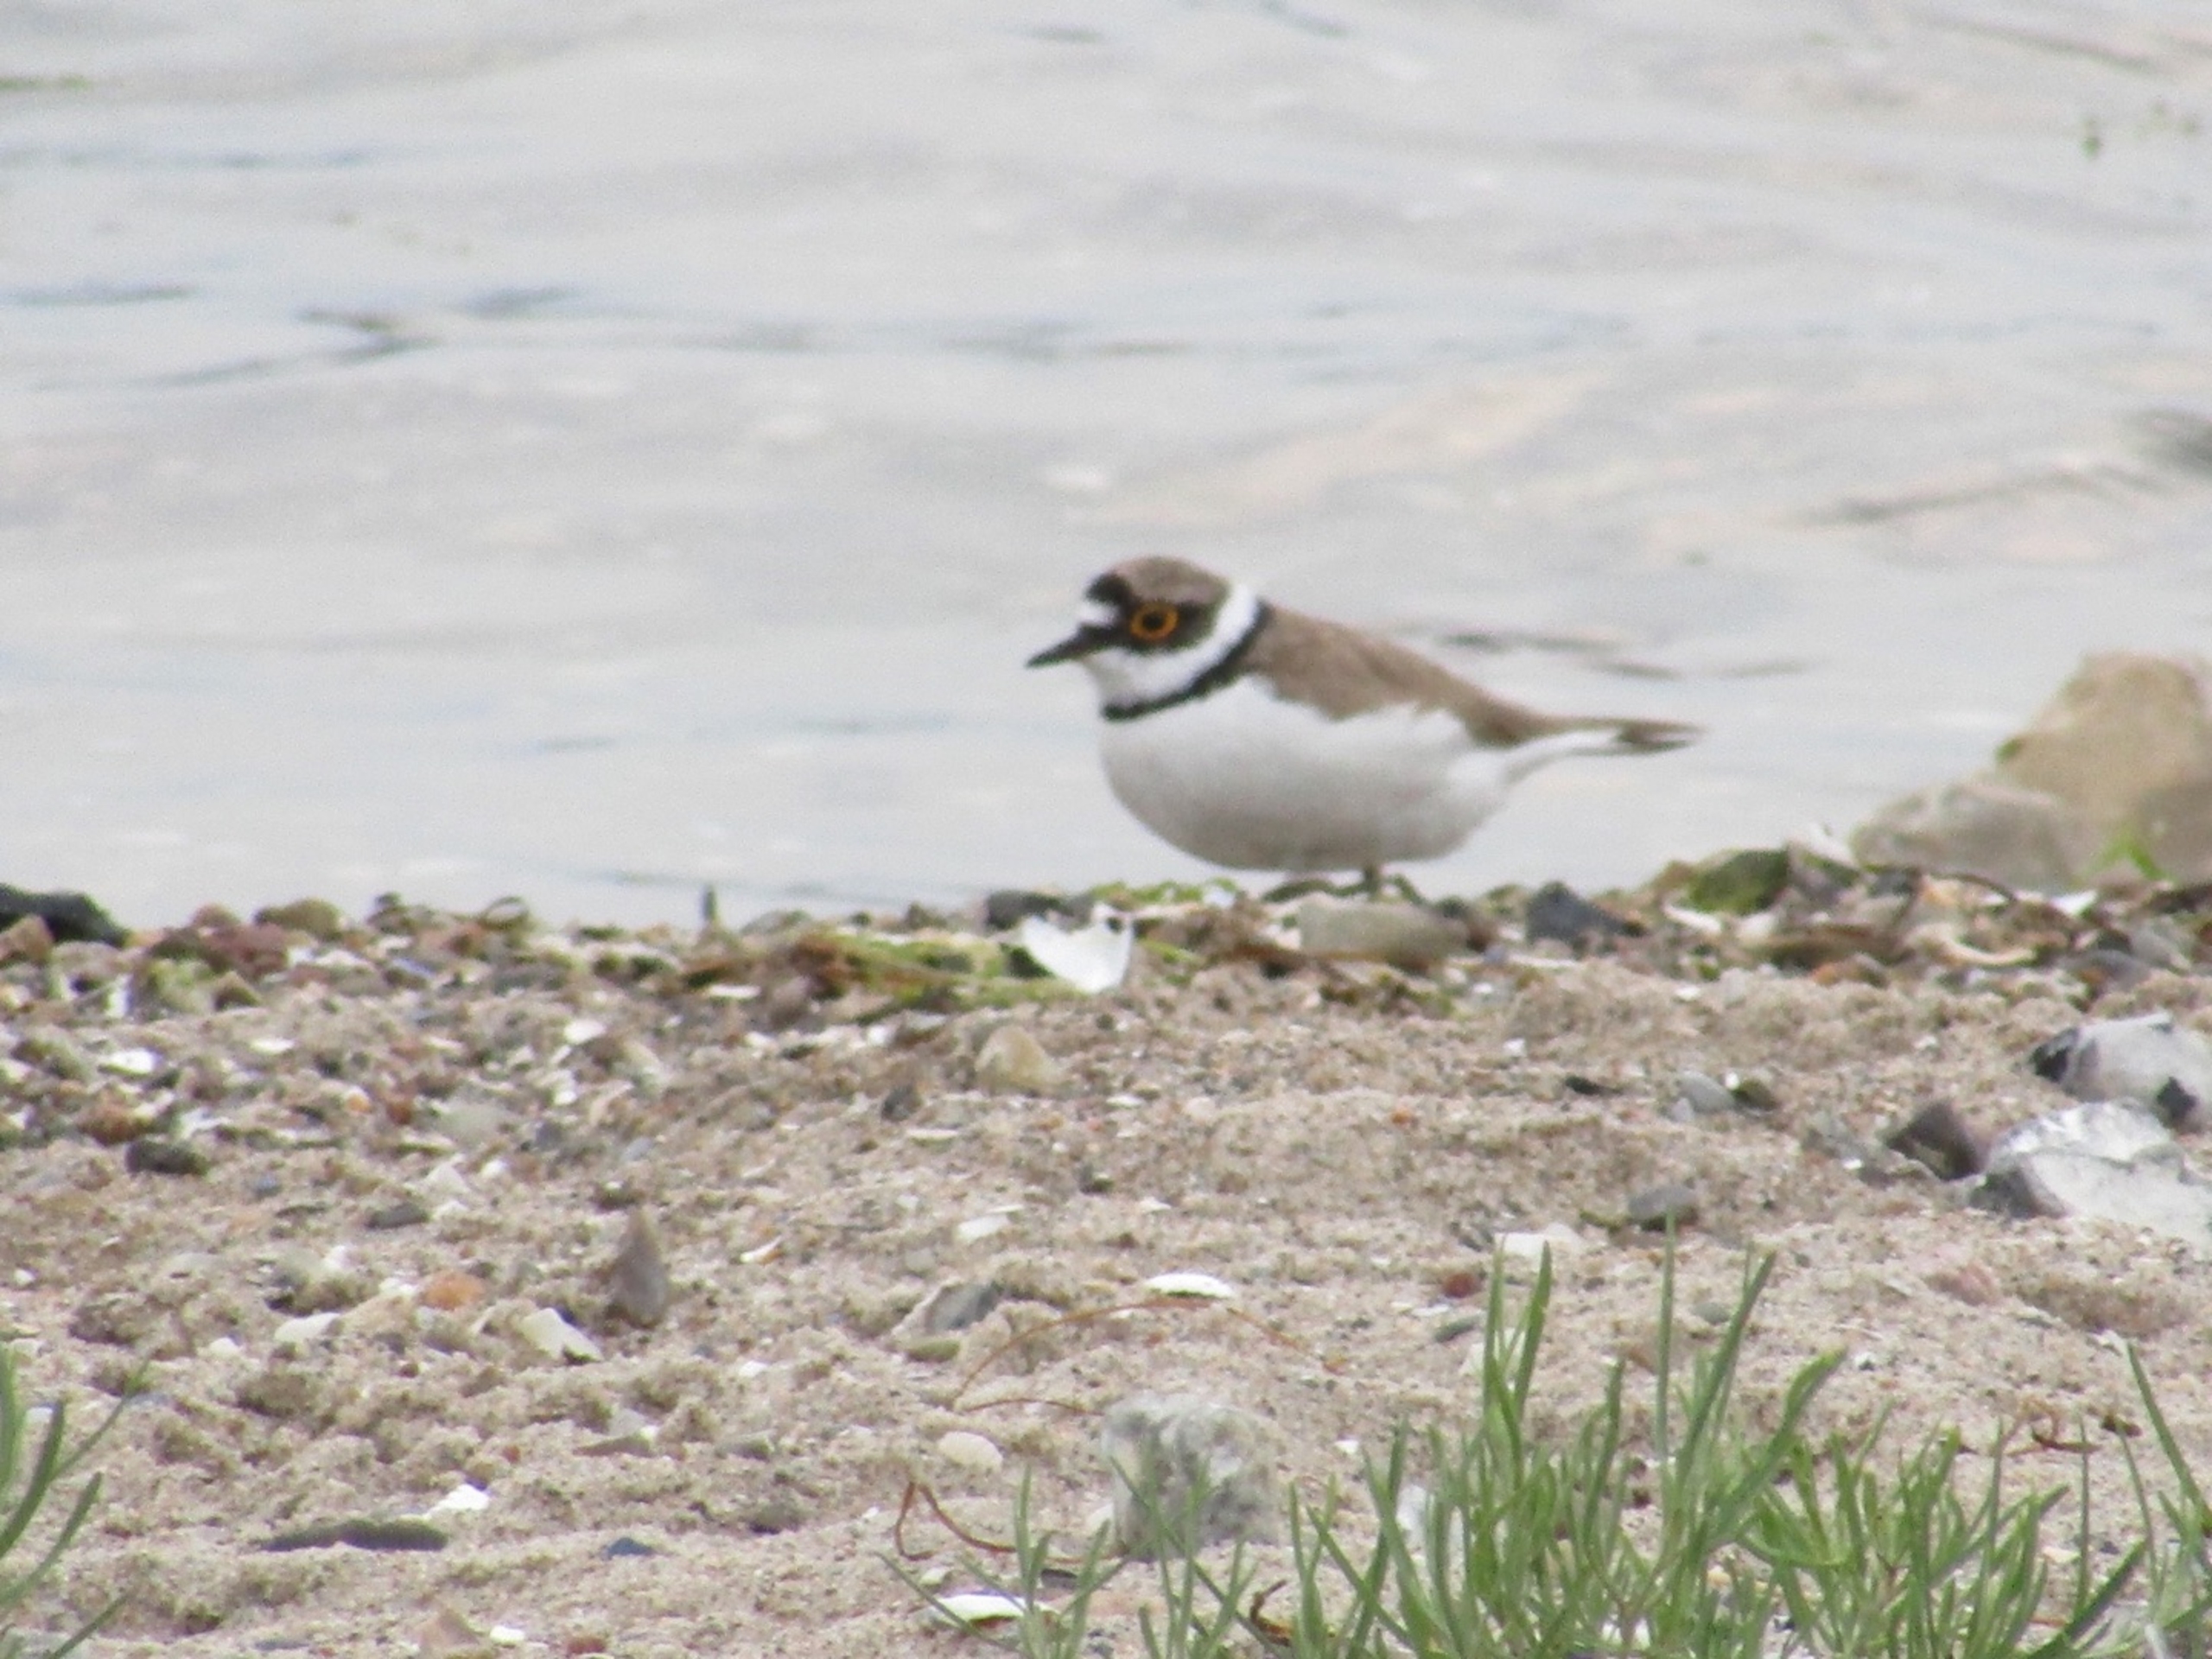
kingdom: Animalia
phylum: Chordata
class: Aves
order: Charadriiformes
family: Charadriidae
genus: Charadrius
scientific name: Charadrius dubius
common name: Lille præstekrave
